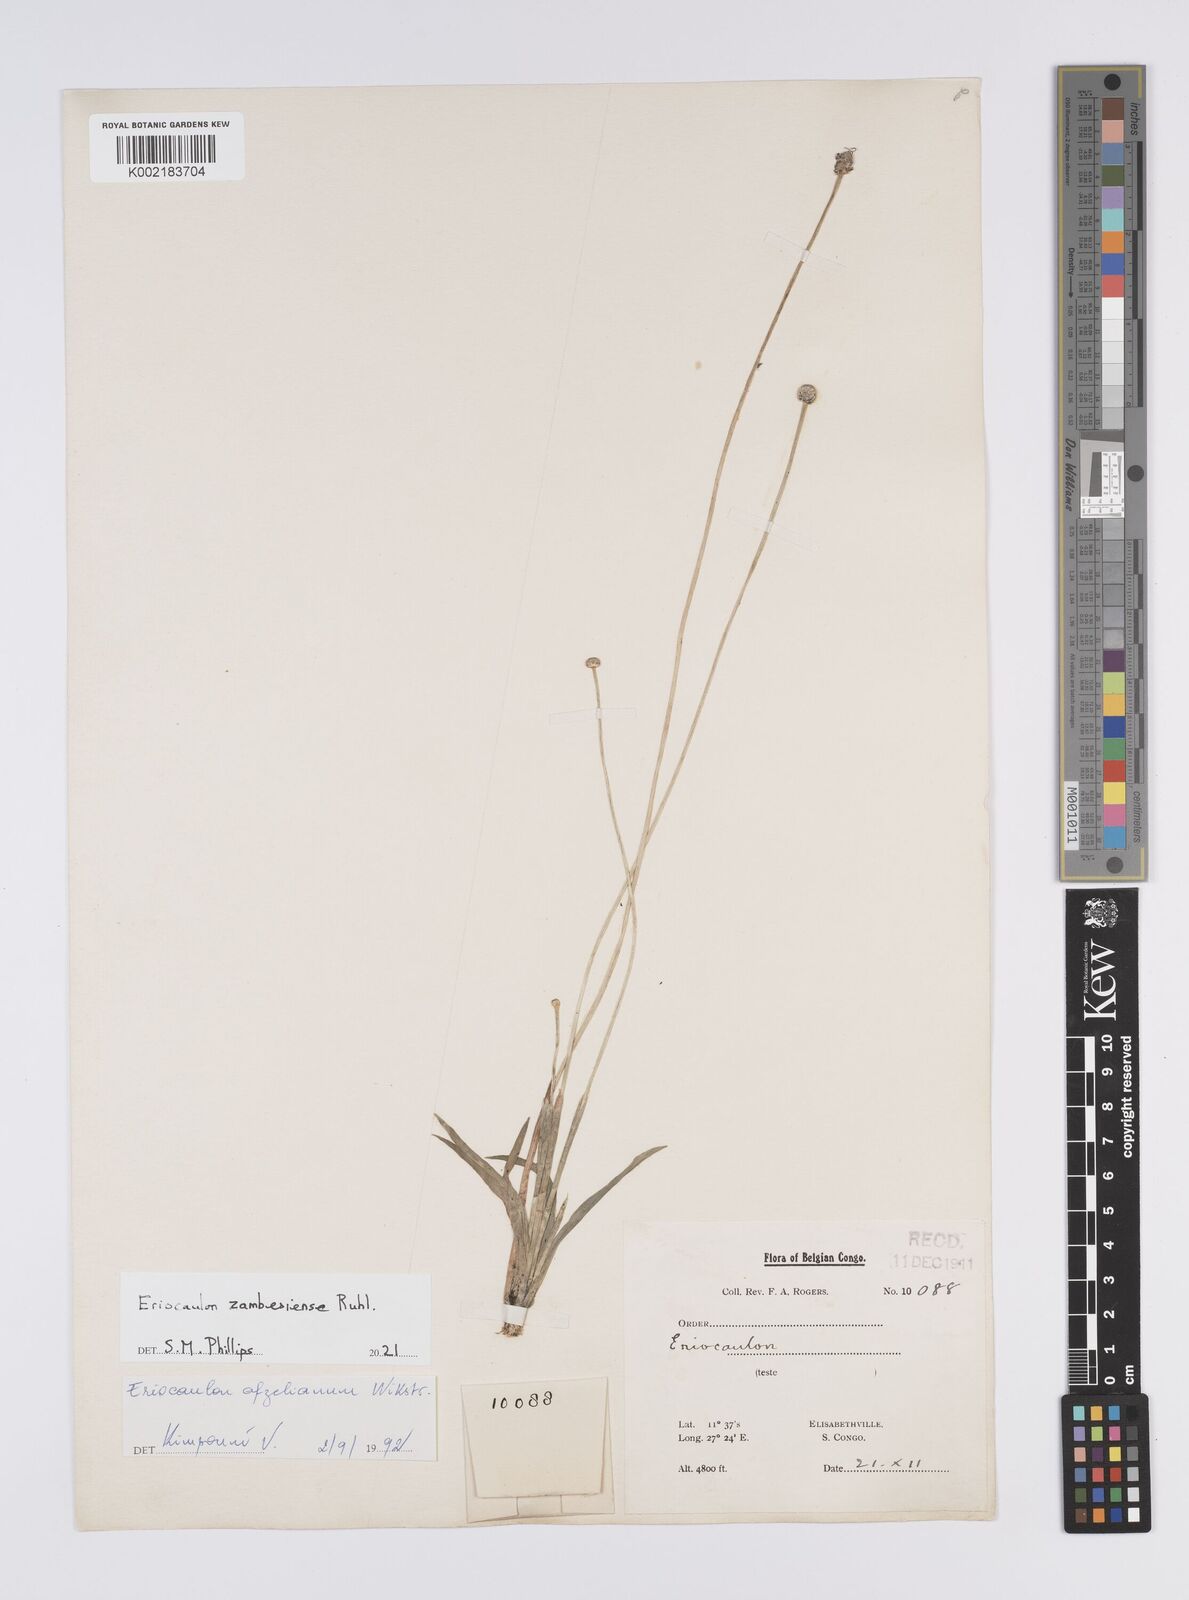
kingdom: Plantae
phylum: Tracheophyta
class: Liliopsida
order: Poales
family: Eriocaulaceae
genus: Eriocaulon
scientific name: Eriocaulon zambesiense
